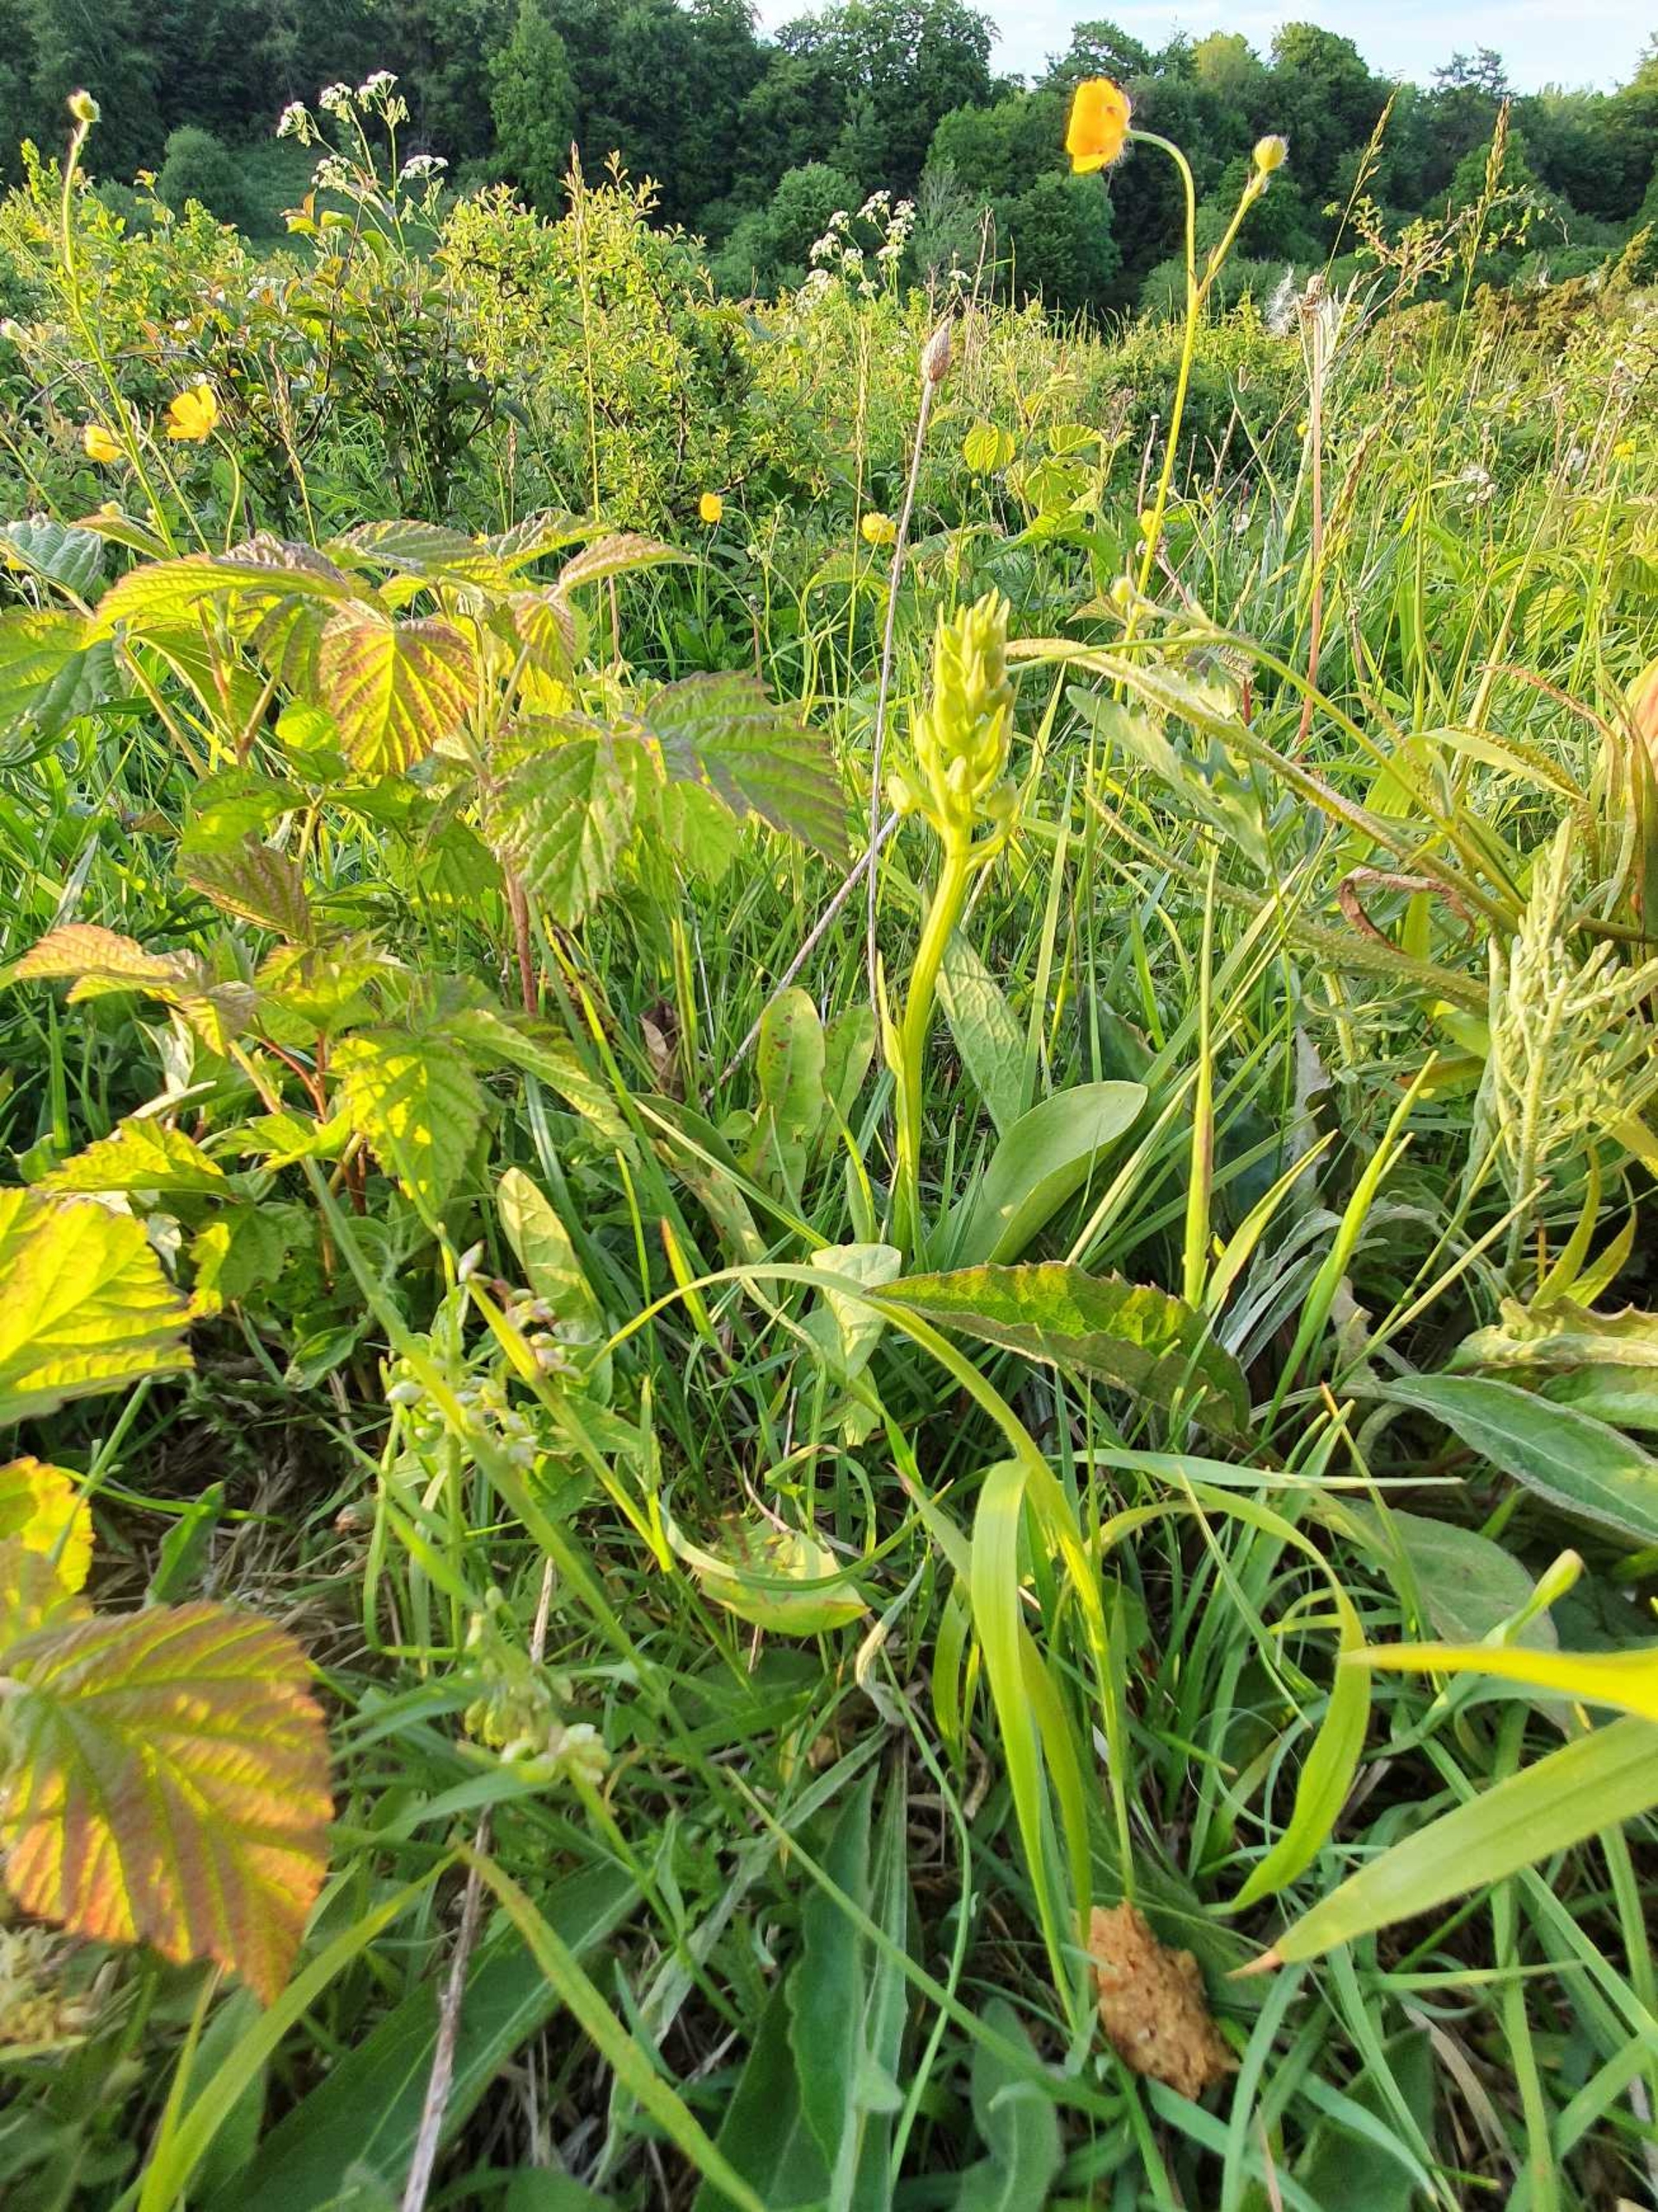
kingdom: Plantae
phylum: Tracheophyta
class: Liliopsida
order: Asparagales
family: Orchidaceae
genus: Platanthera
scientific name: Platanthera
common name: Gøgeliljeslægten
